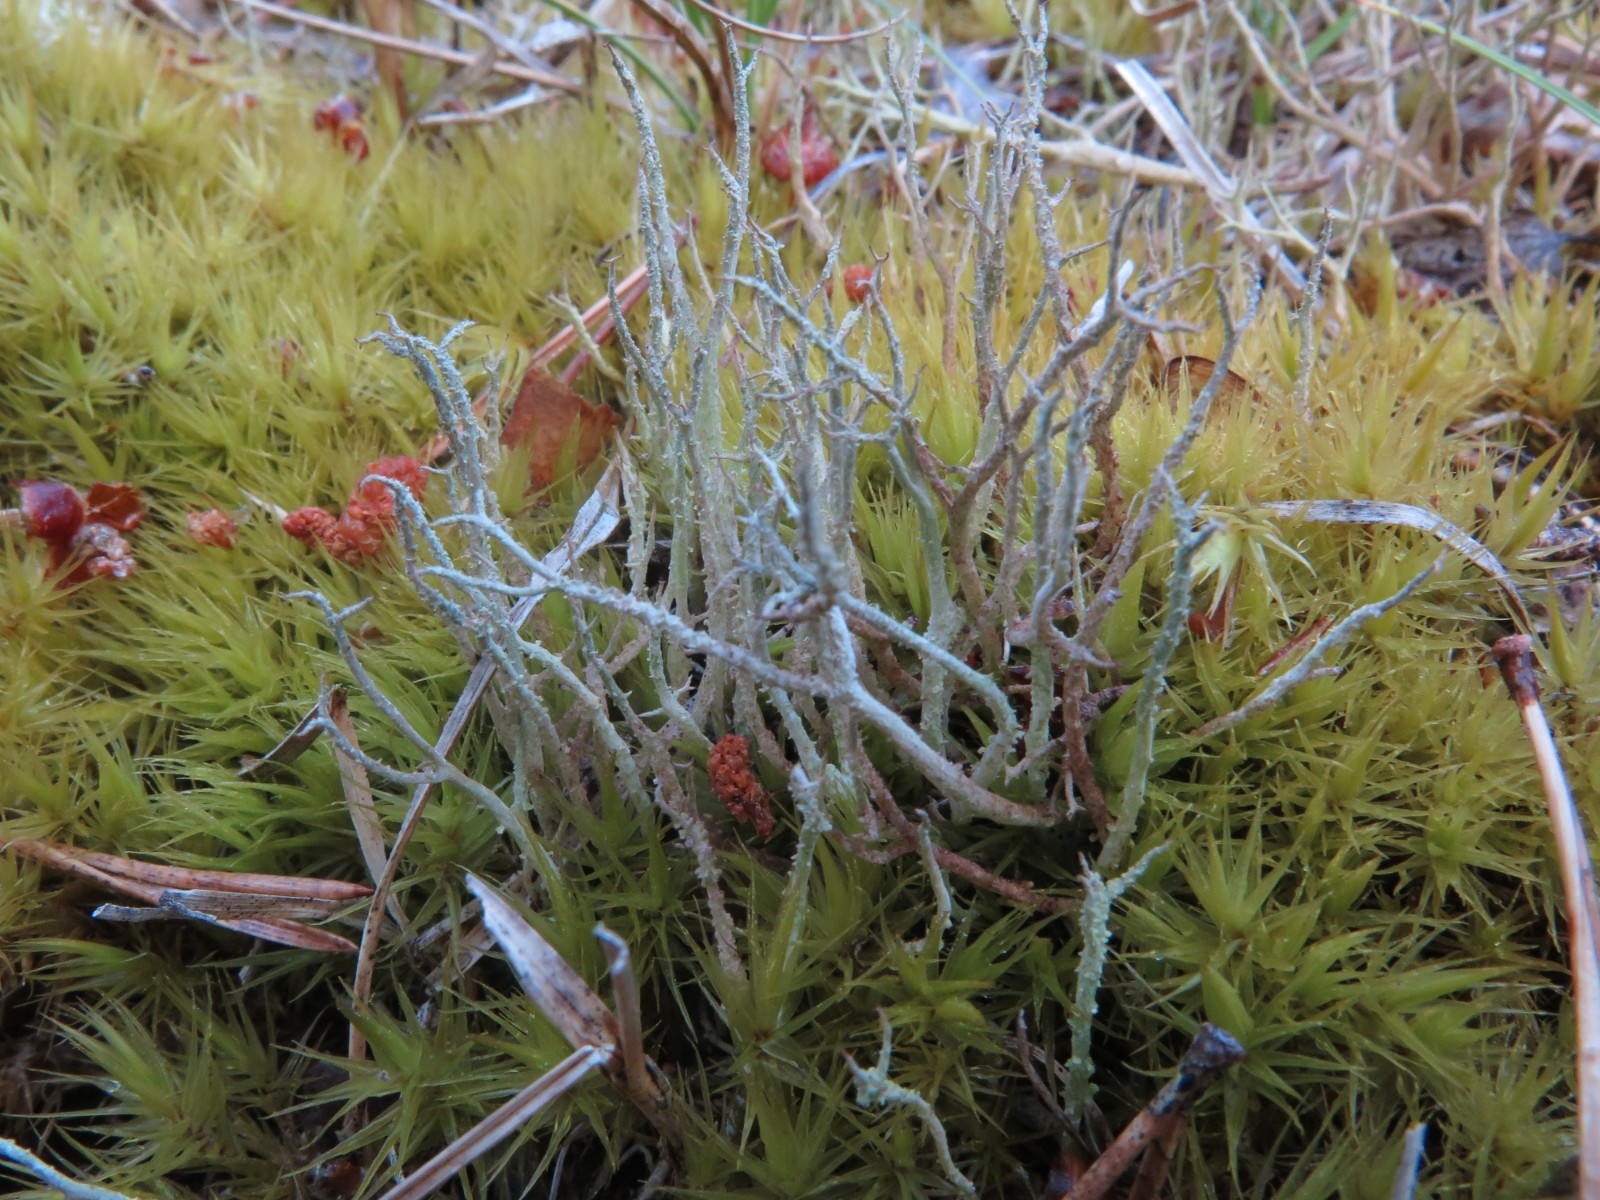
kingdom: Fungi
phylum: Ascomycota
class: Lecanoromycetes
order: Lecanorales
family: Cladoniaceae
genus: Cladonia
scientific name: Cladonia scabriuscula
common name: ru bægerlav
